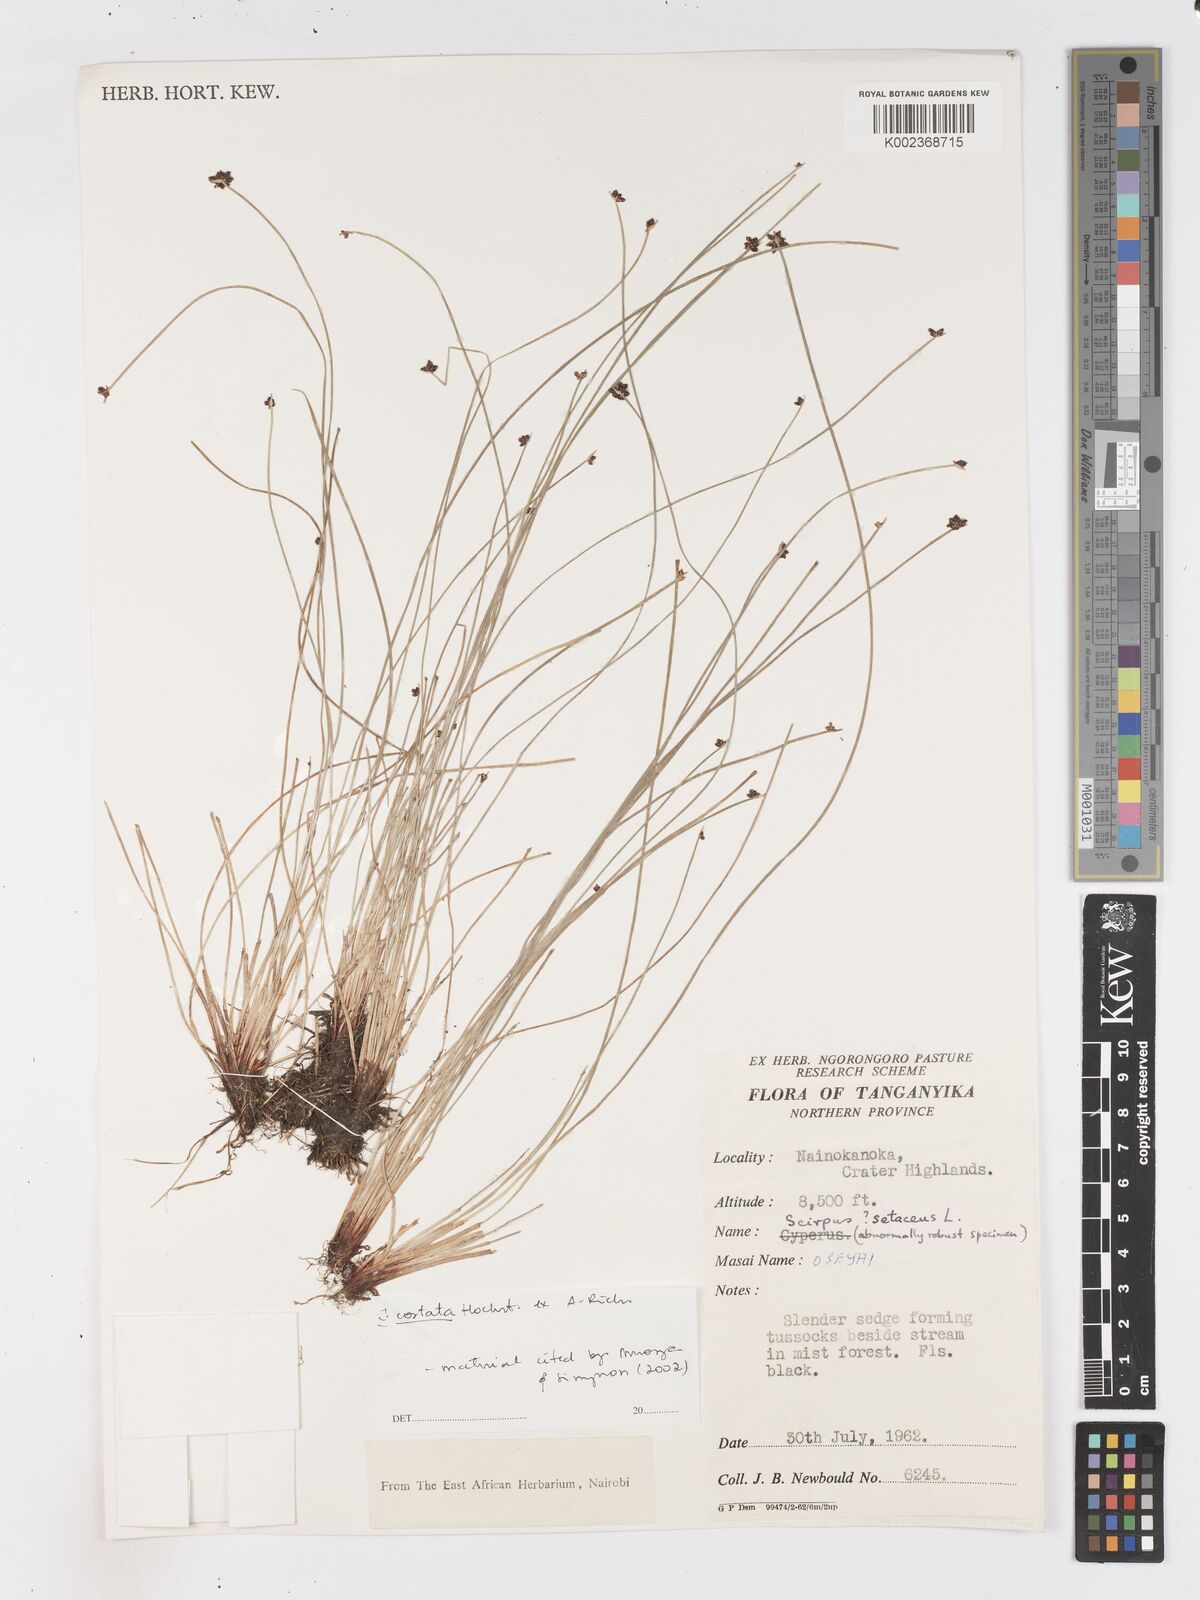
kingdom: Plantae
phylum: Tracheophyta
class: Liliopsida
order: Poales
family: Cyperaceae
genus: Isolepis
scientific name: Isolepis costata
